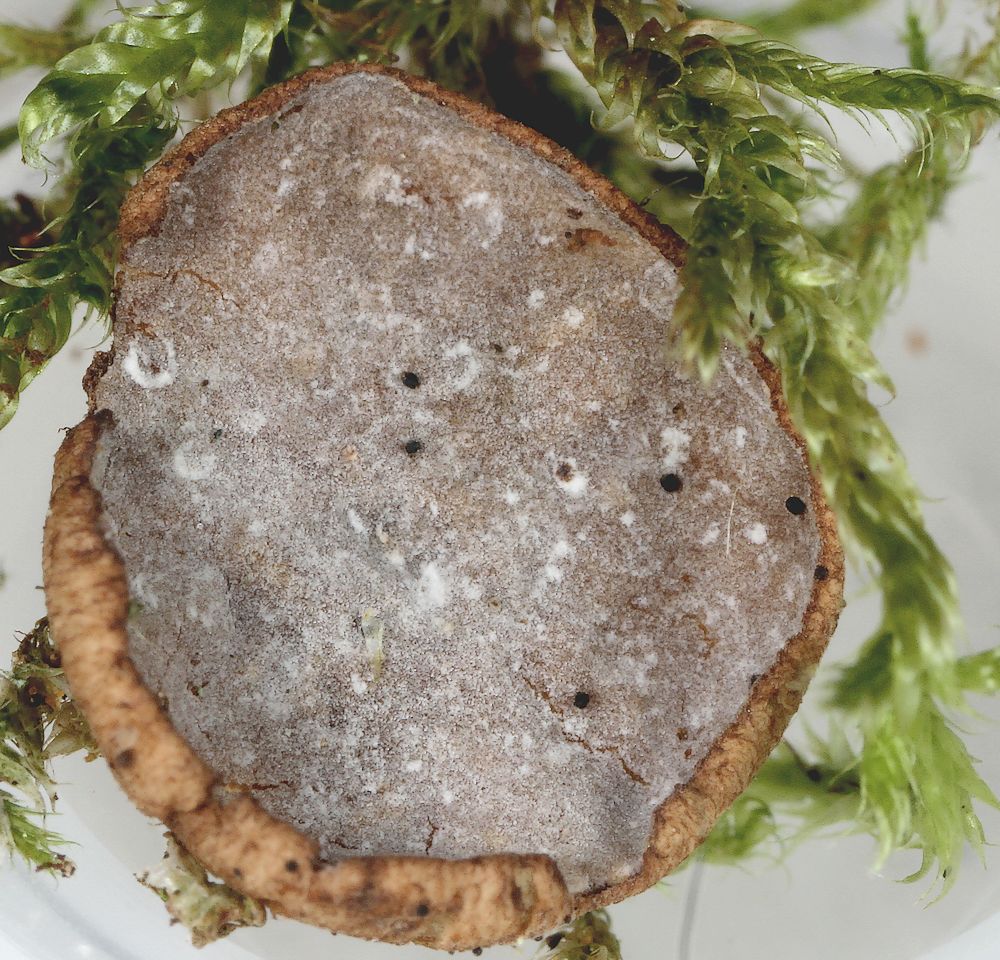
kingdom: Fungi
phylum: Ascomycota
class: Leotiomycetes
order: Helotiales
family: Rutstroemiaceae
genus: Rutstroemia
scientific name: Rutstroemia firma
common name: gren-brunskive
